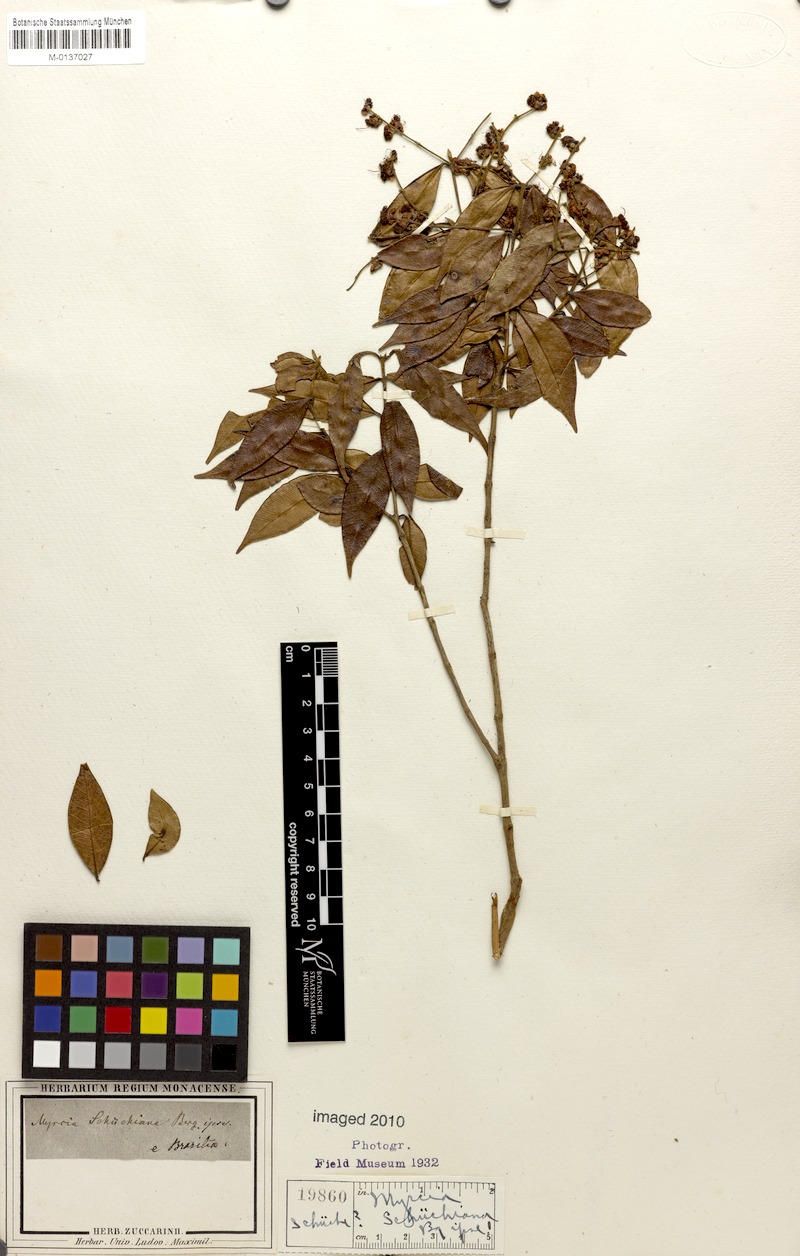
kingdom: Plantae
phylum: Tracheophyta
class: Magnoliopsida
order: Myrtales
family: Myrtaceae
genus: Myrcia
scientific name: Myrcia splendens
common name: Surinam cherry
